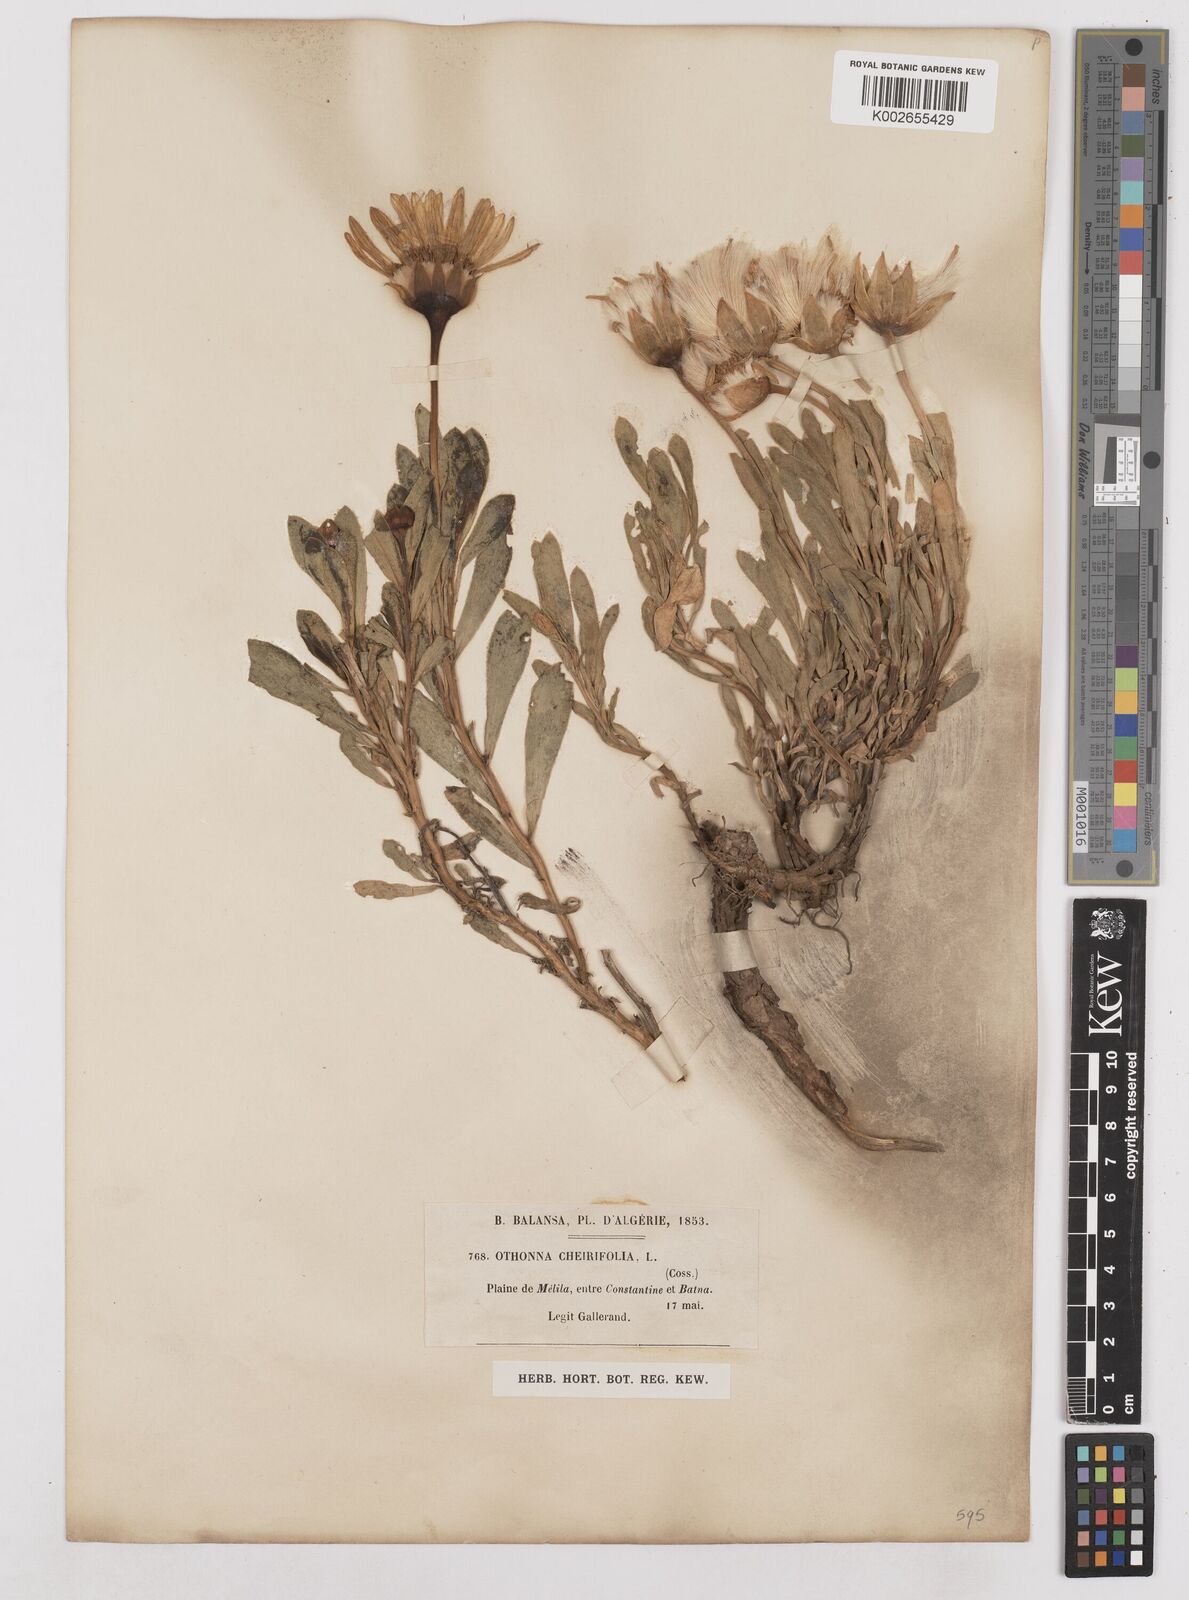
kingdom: Plantae
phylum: Tracheophyta
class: Magnoliopsida
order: Asterales
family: Asteraceae
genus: Hertia
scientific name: Hertia cheirifolia
